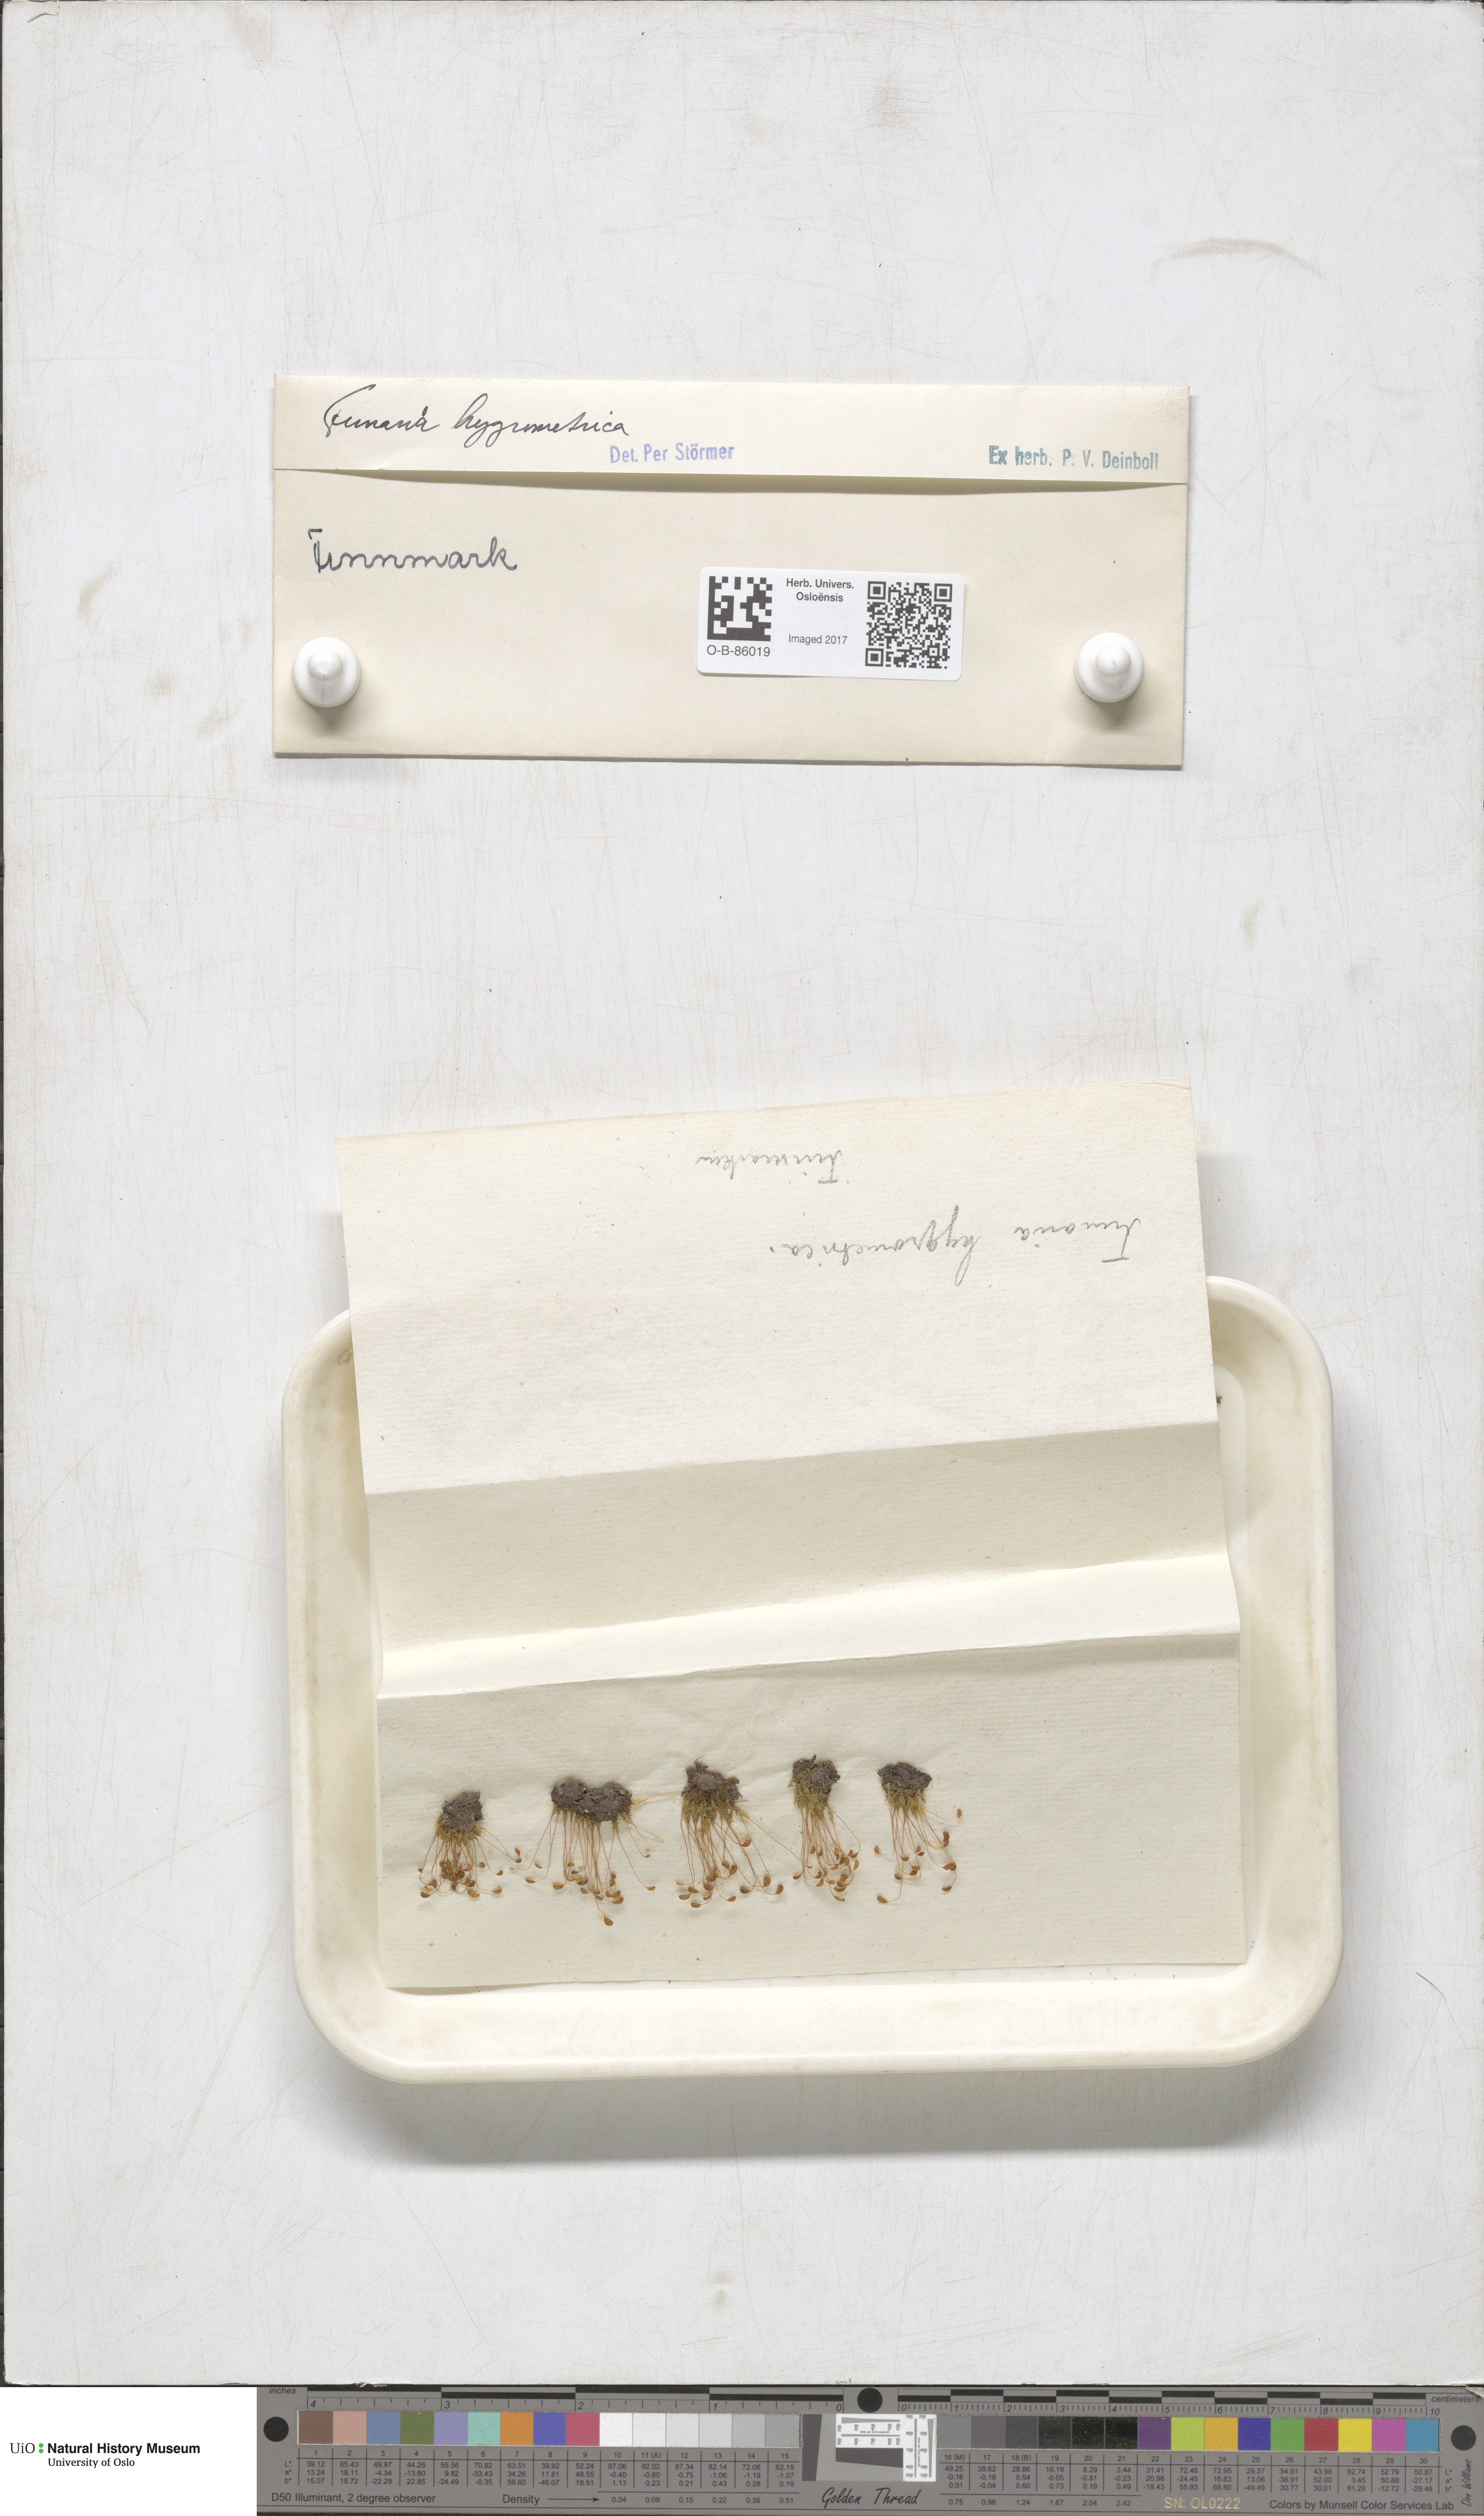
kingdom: Plantae
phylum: Bryophyta
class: Bryopsida
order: Funariales
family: Funariaceae
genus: Funaria
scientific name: Funaria hygrometrica
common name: Common cord moss
